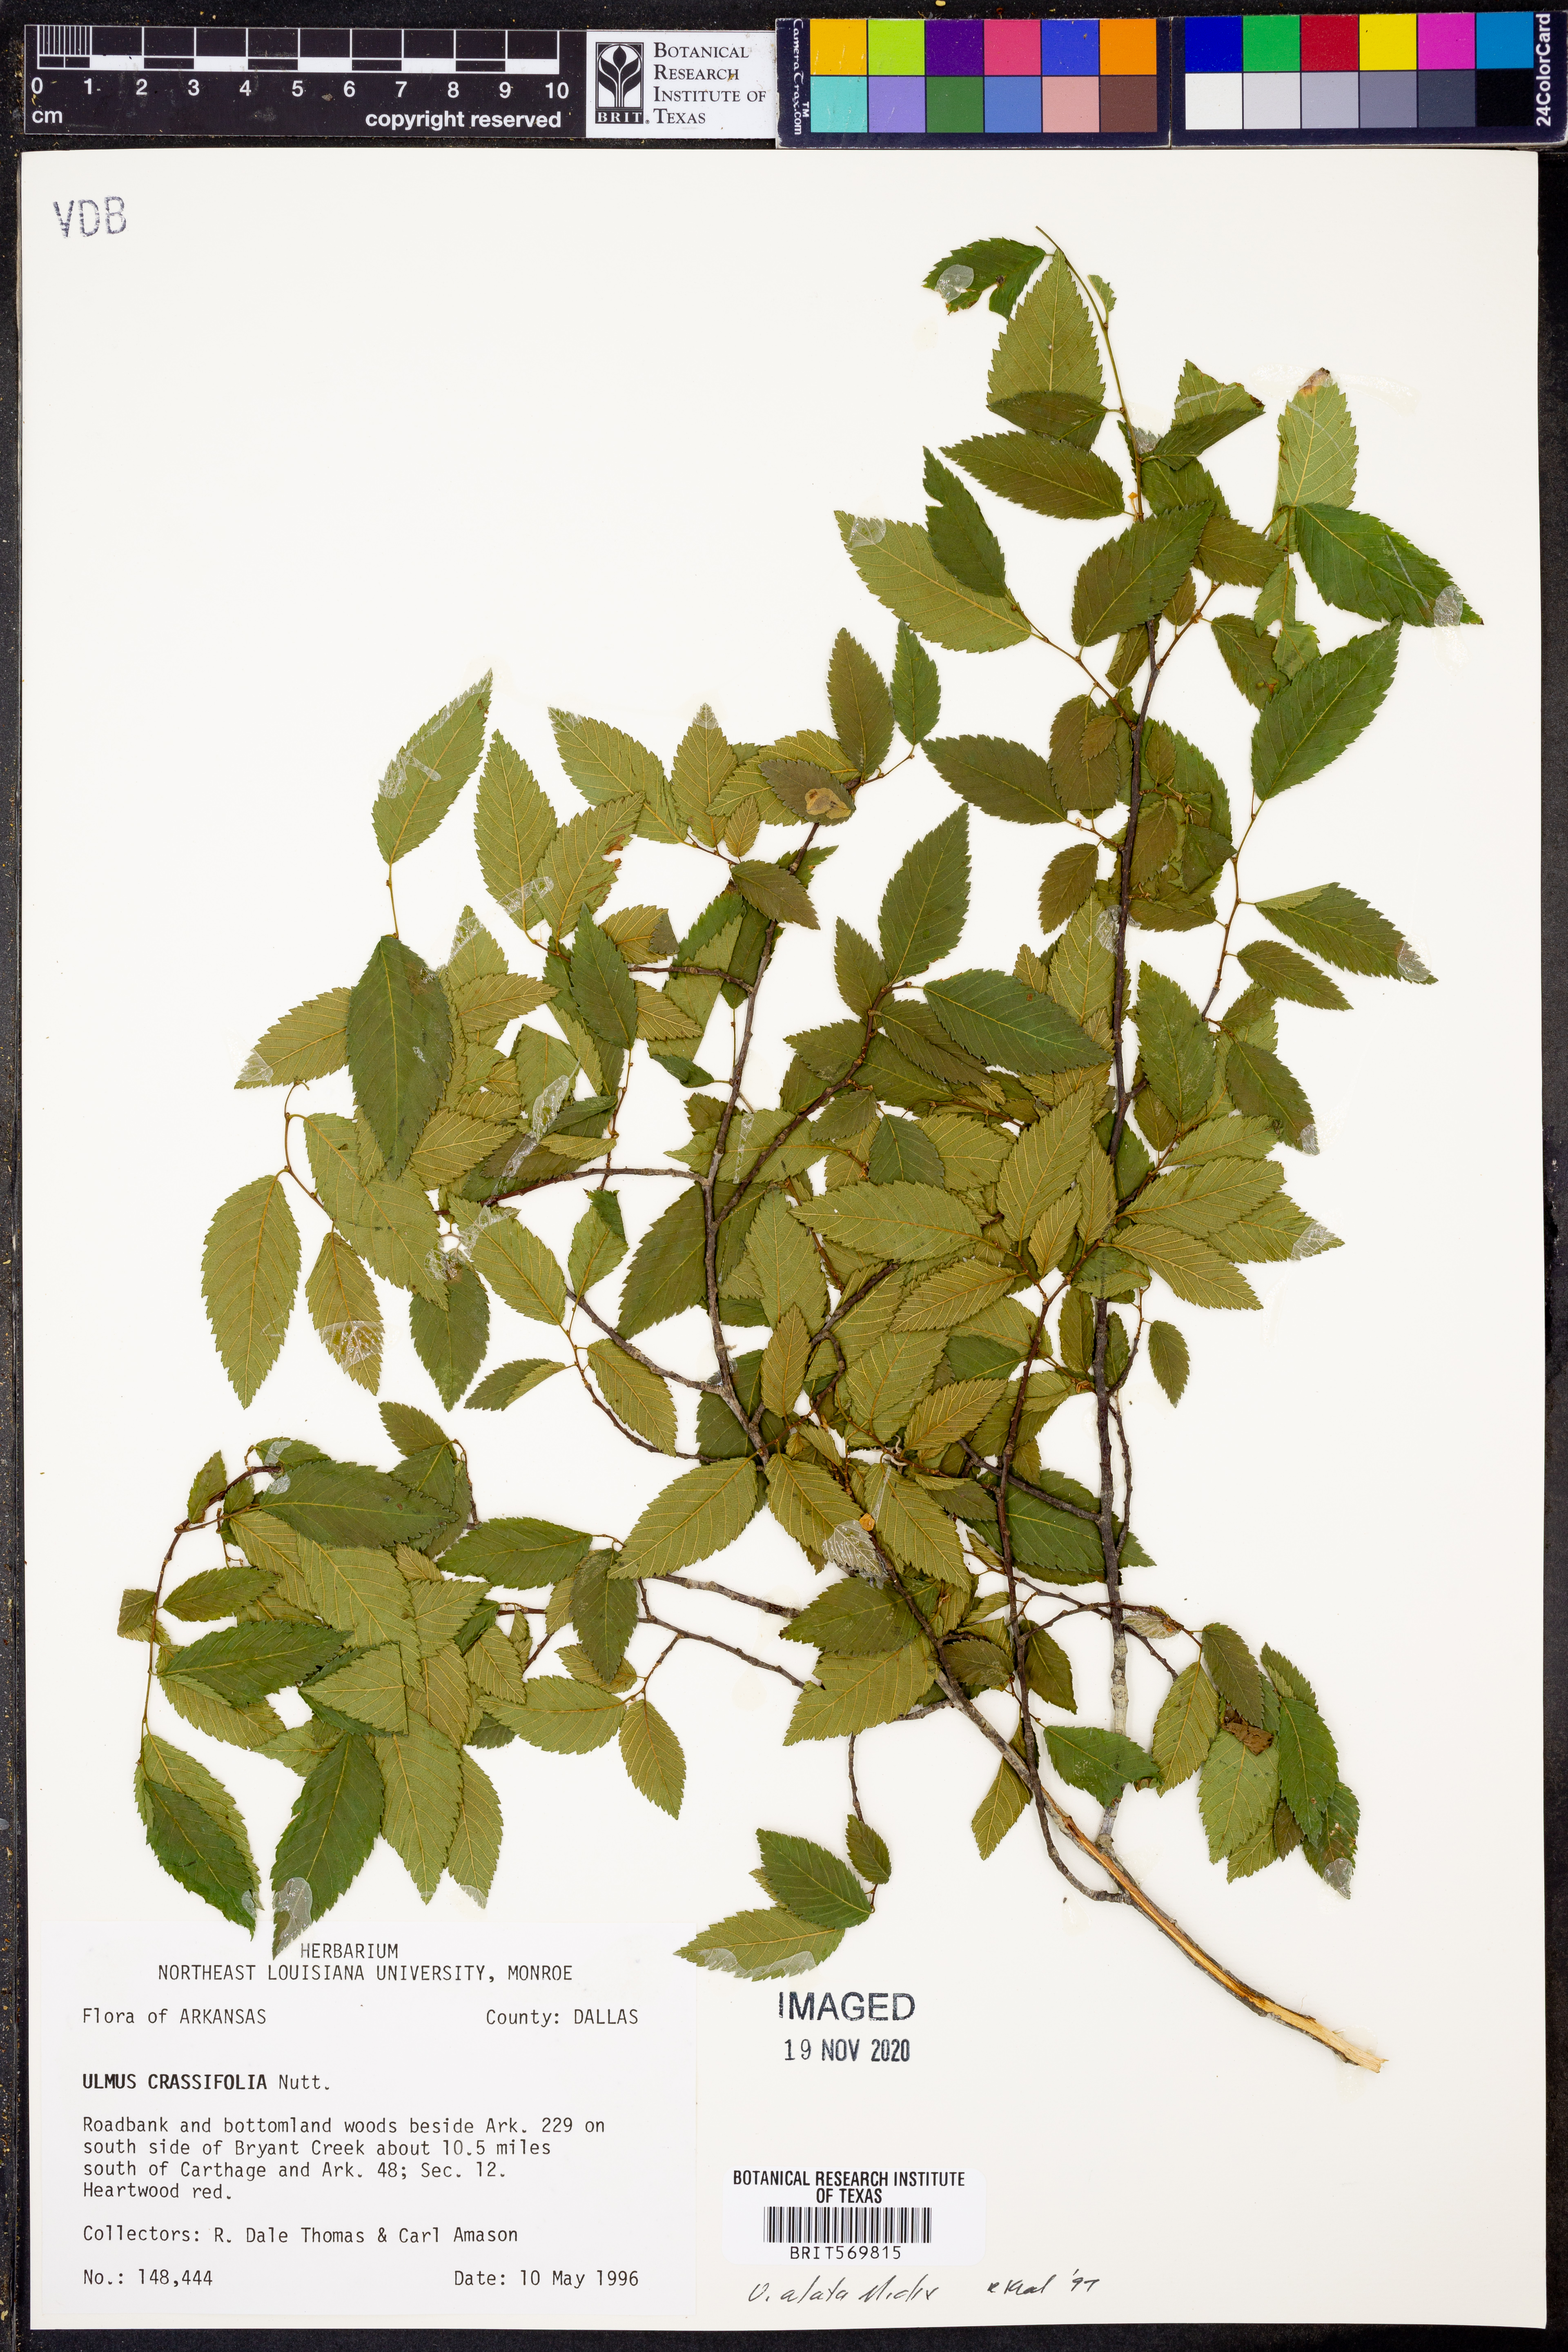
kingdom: Plantae
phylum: Tracheophyta
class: Magnoliopsida
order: Rosales
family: Ulmaceae
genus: Ulmus
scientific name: Ulmus alata
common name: Winged elm
